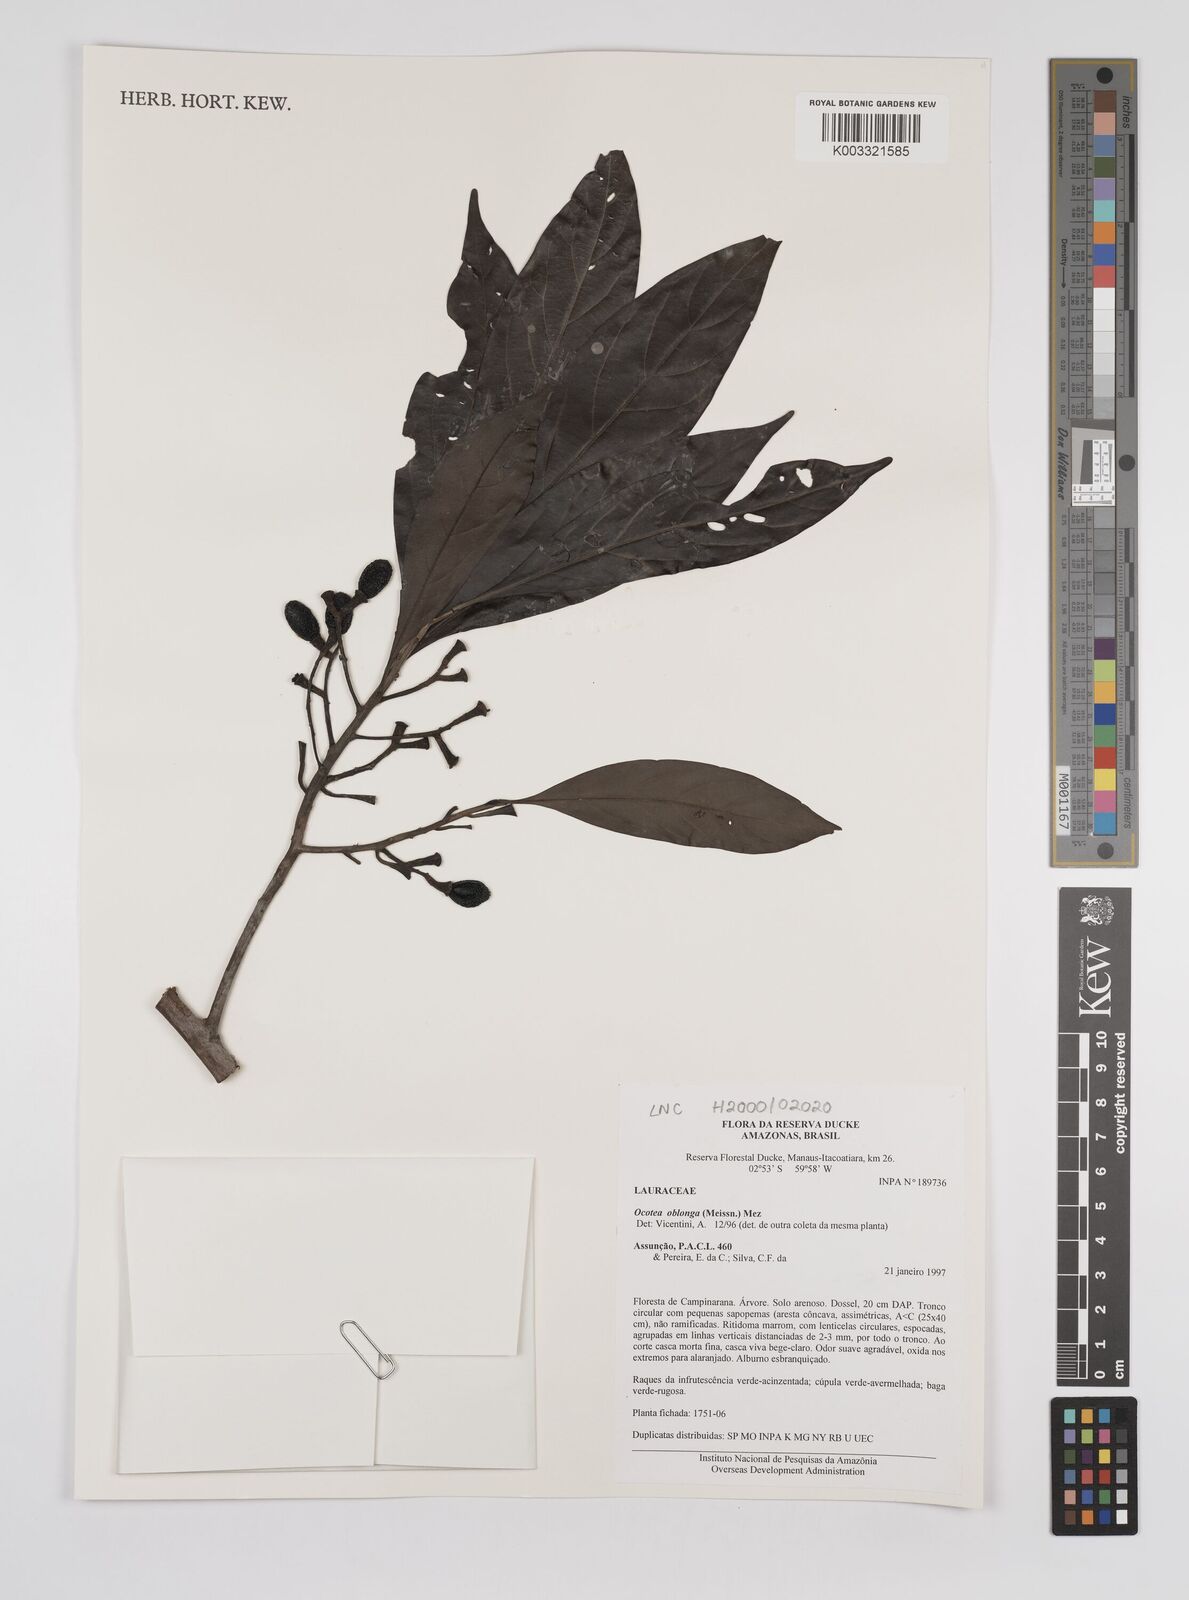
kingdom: Plantae
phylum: Tracheophyta
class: Magnoliopsida
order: Laurales
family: Lauraceae
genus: Ocotea
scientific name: Ocotea oblonga
